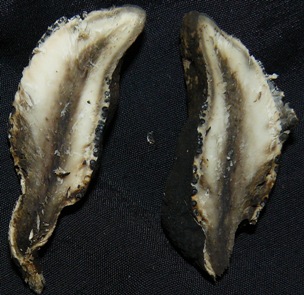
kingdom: Fungi
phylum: Ascomycota
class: Sordariomycetes
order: Xylariales
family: Xylariaceae
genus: Xylaria
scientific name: Xylaria polymorpha
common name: kølle-stødsvamp
